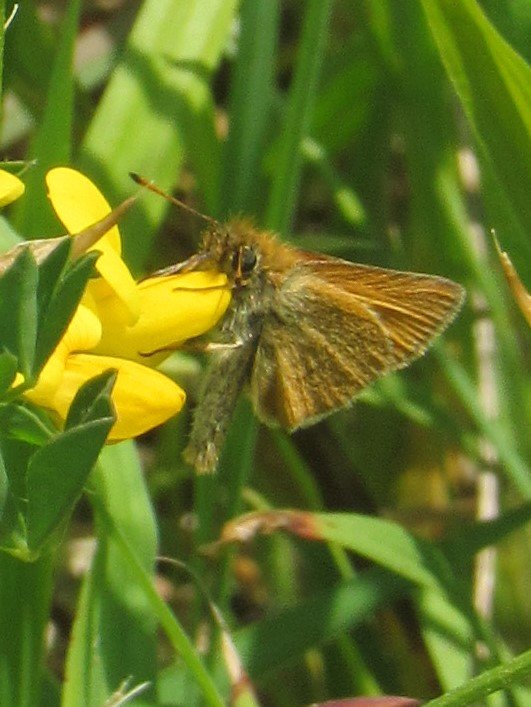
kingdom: Animalia
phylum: Arthropoda
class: Insecta
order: Lepidoptera
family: Hesperiidae
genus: Ancyloxypha
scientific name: Ancyloxypha numitor
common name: Least Skipper
